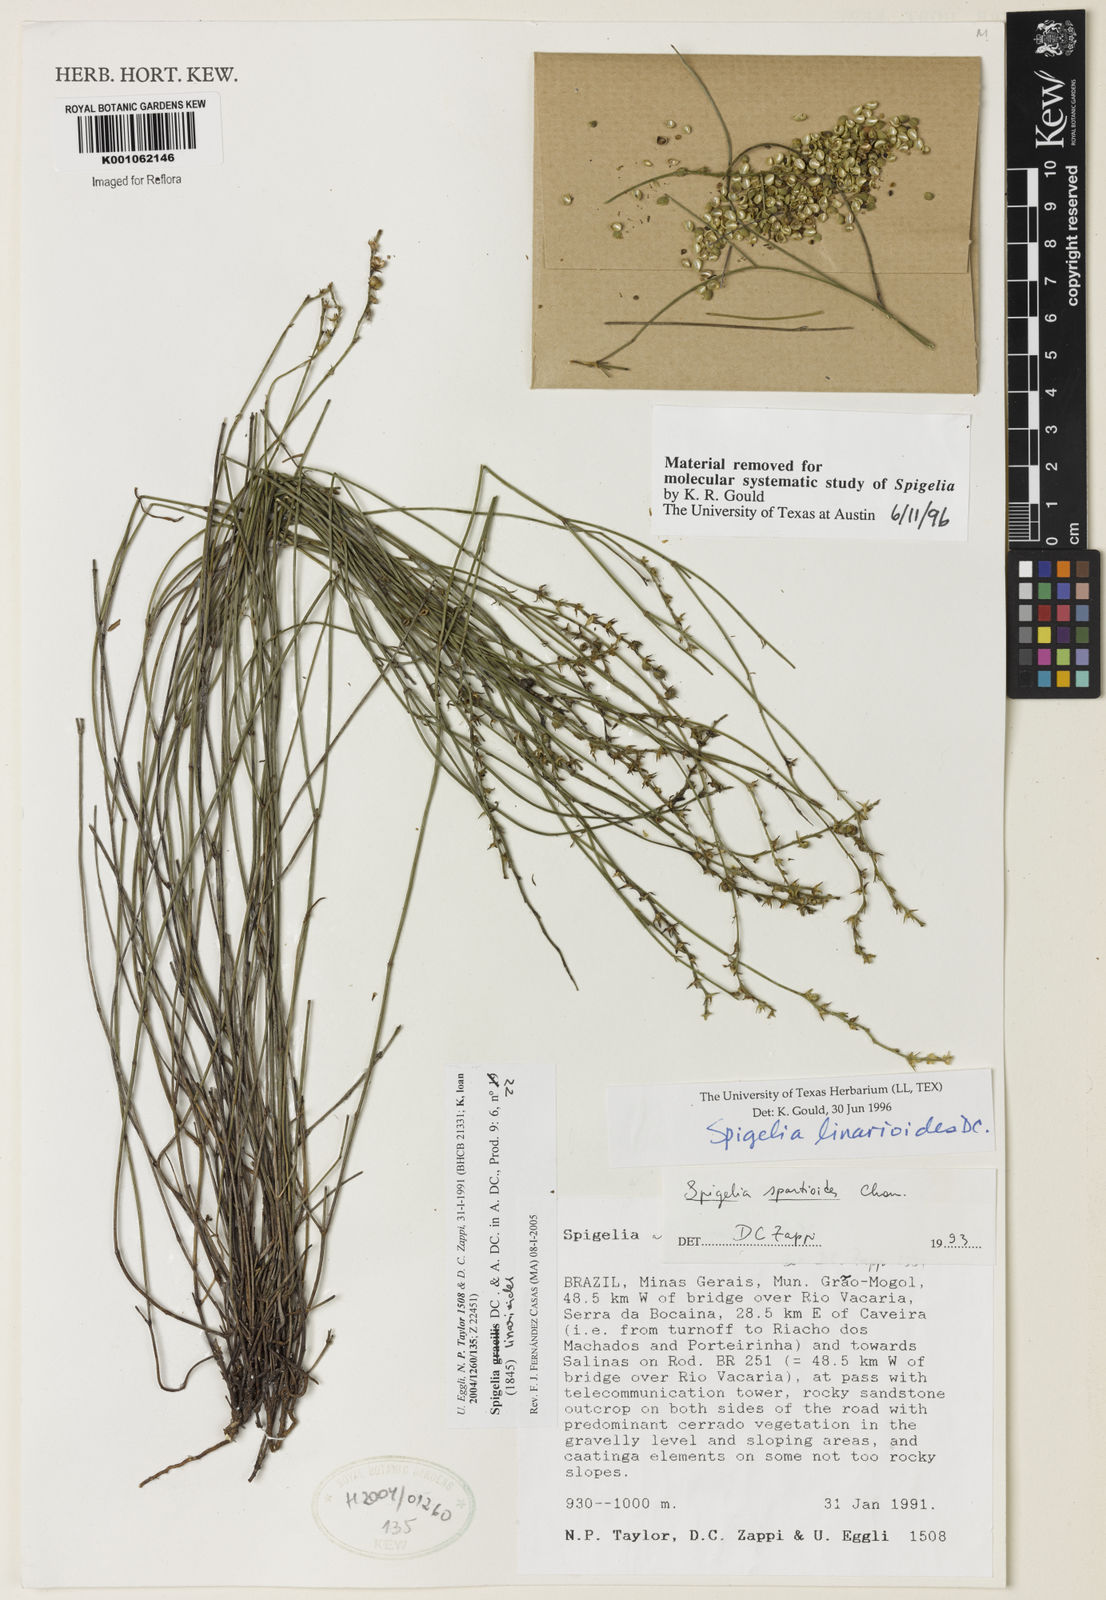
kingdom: Plantae
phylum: Tracheophyta
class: Magnoliopsida
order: Gentianales
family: Loganiaceae
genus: Spigelia
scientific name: Spigelia linarioides
